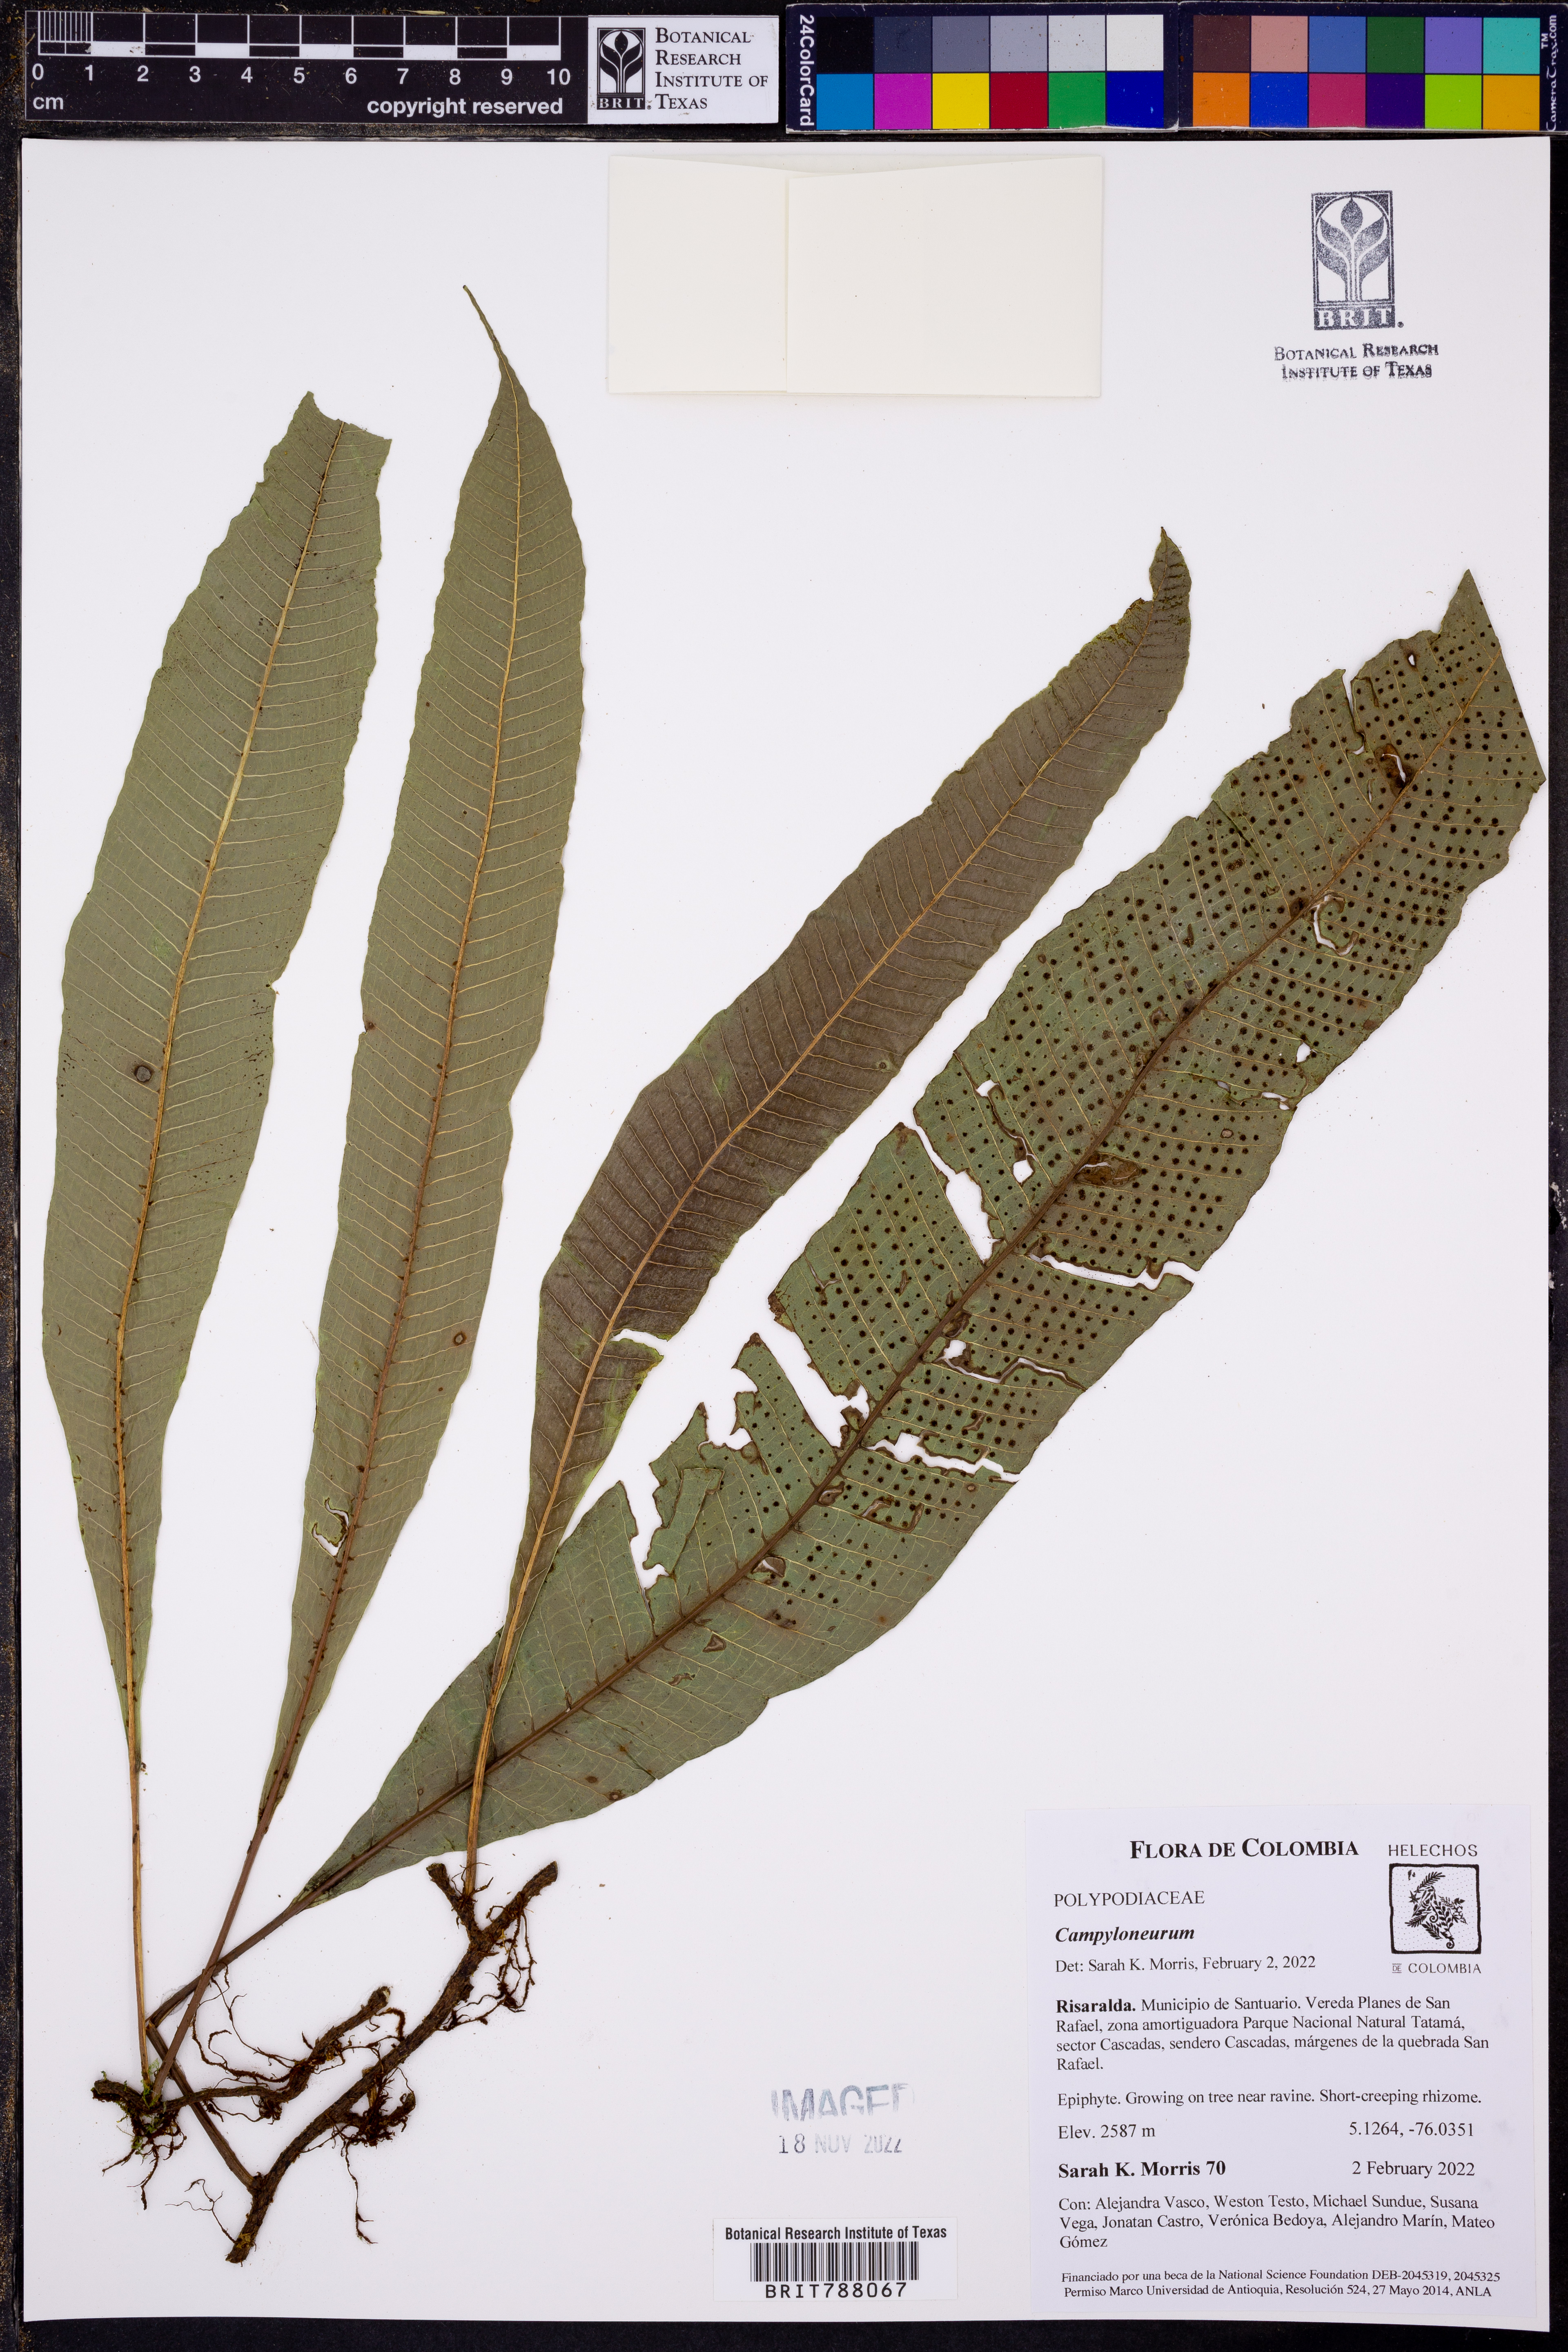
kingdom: Plantae
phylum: Tracheophyta
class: Polypodiopsida
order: Polypodiales
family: Polypodiaceae
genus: Campyloneurum
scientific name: Campyloneurum
